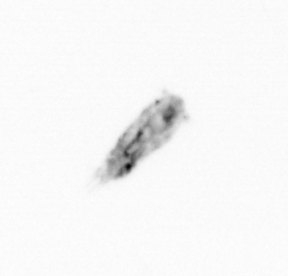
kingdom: Animalia
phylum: Arthropoda
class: Copepoda
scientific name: Copepoda
